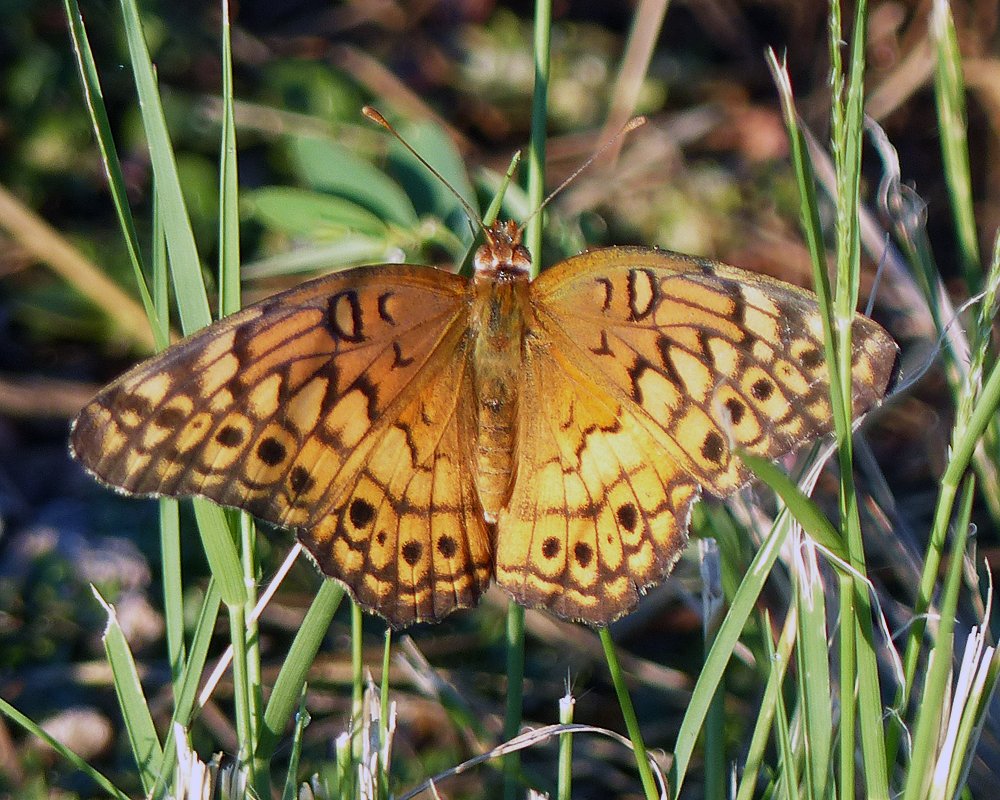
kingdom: Animalia
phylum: Arthropoda
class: Insecta
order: Lepidoptera
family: Nymphalidae
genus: Euptoieta
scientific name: Euptoieta claudia
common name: Variegated Fritillary
